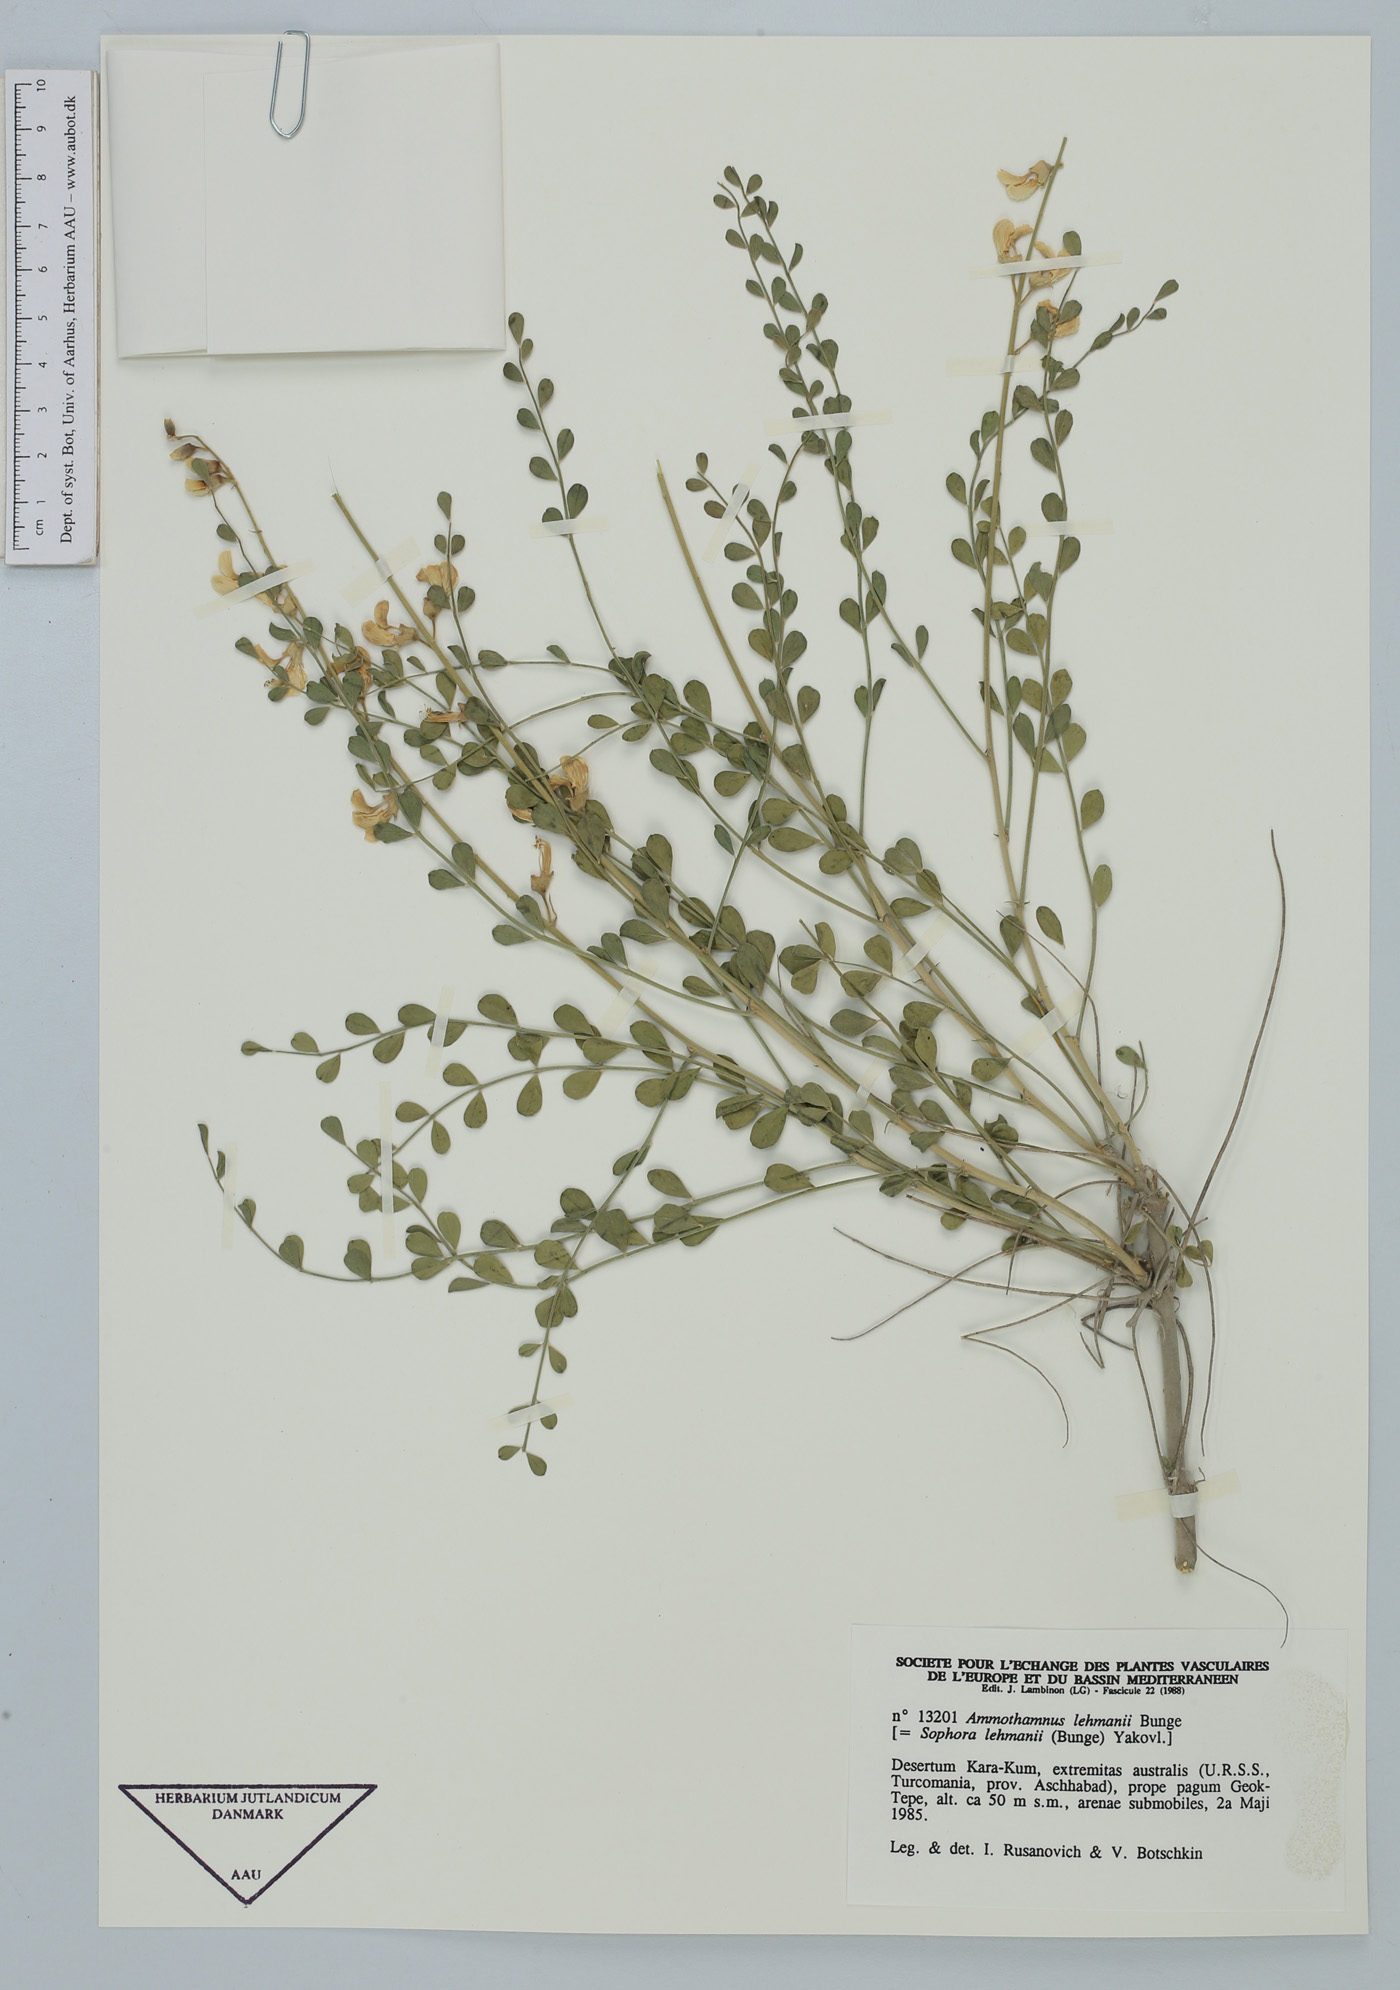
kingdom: Plantae
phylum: Tracheophyta
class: Magnoliopsida
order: Fabales
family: Fabaceae
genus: Sophora
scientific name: Sophora lehmannii
